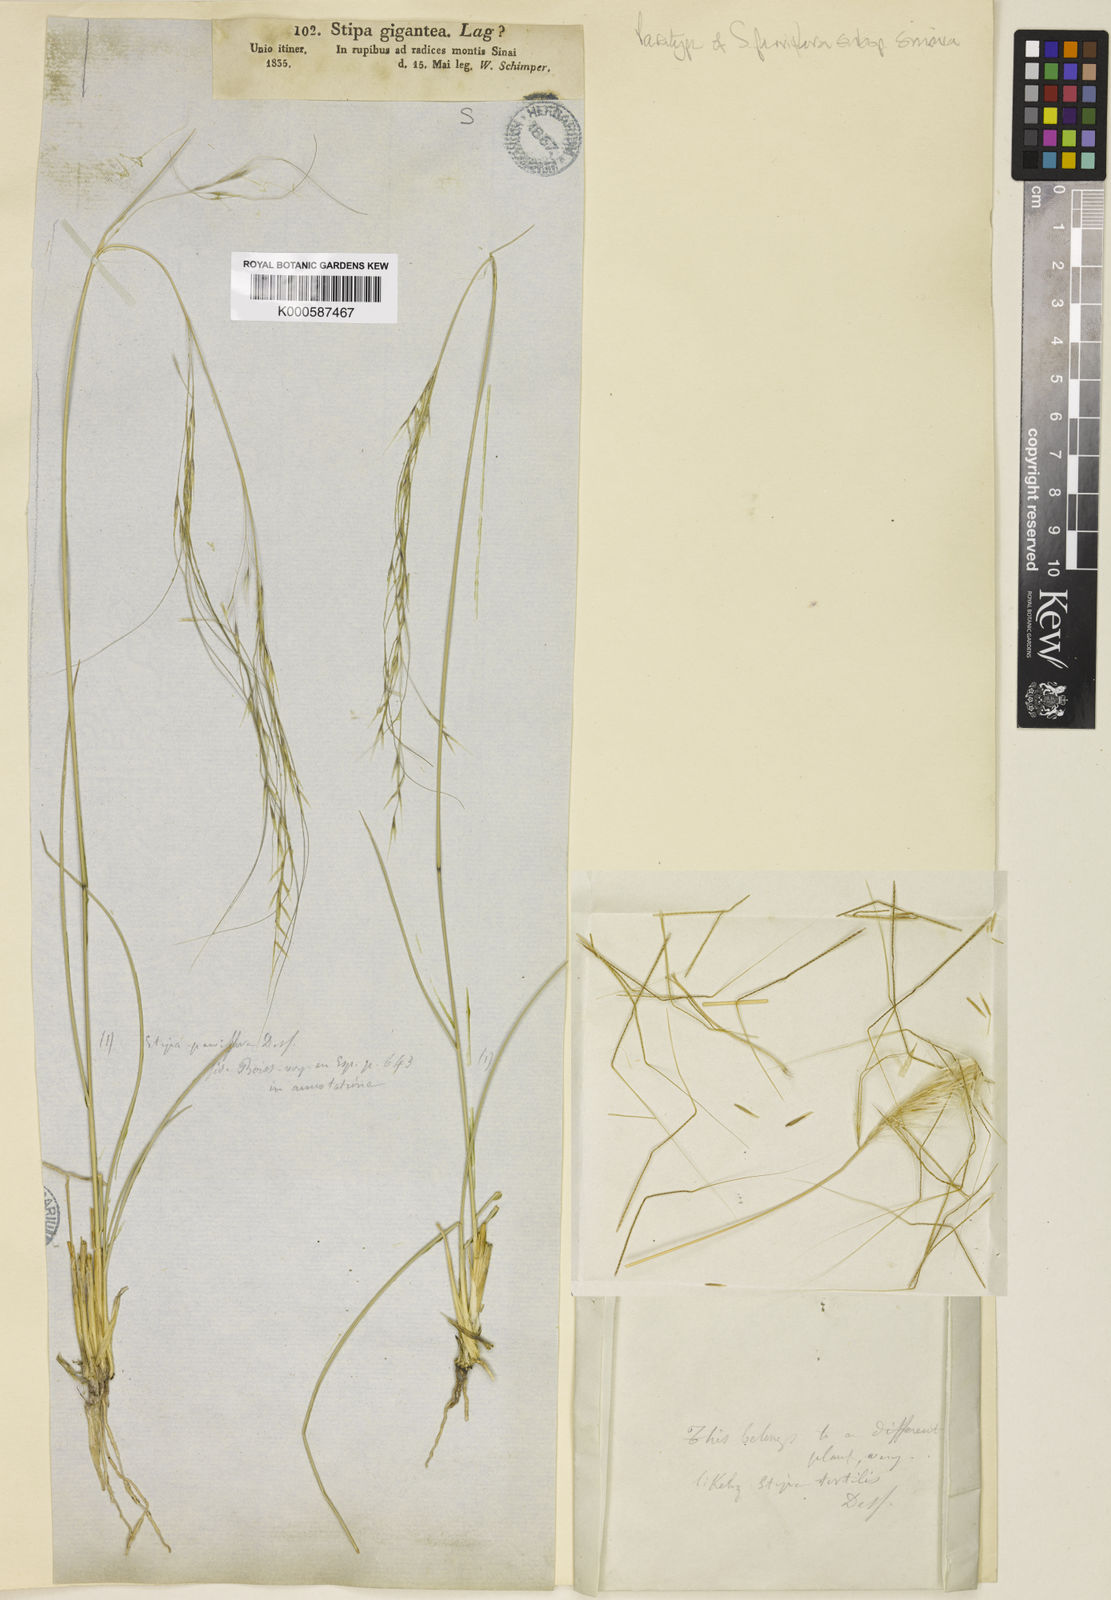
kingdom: Plantae
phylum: Tracheophyta
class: Liliopsida
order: Poales
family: Poaceae
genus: Achnatherum
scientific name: Achnatherum parviflorum
